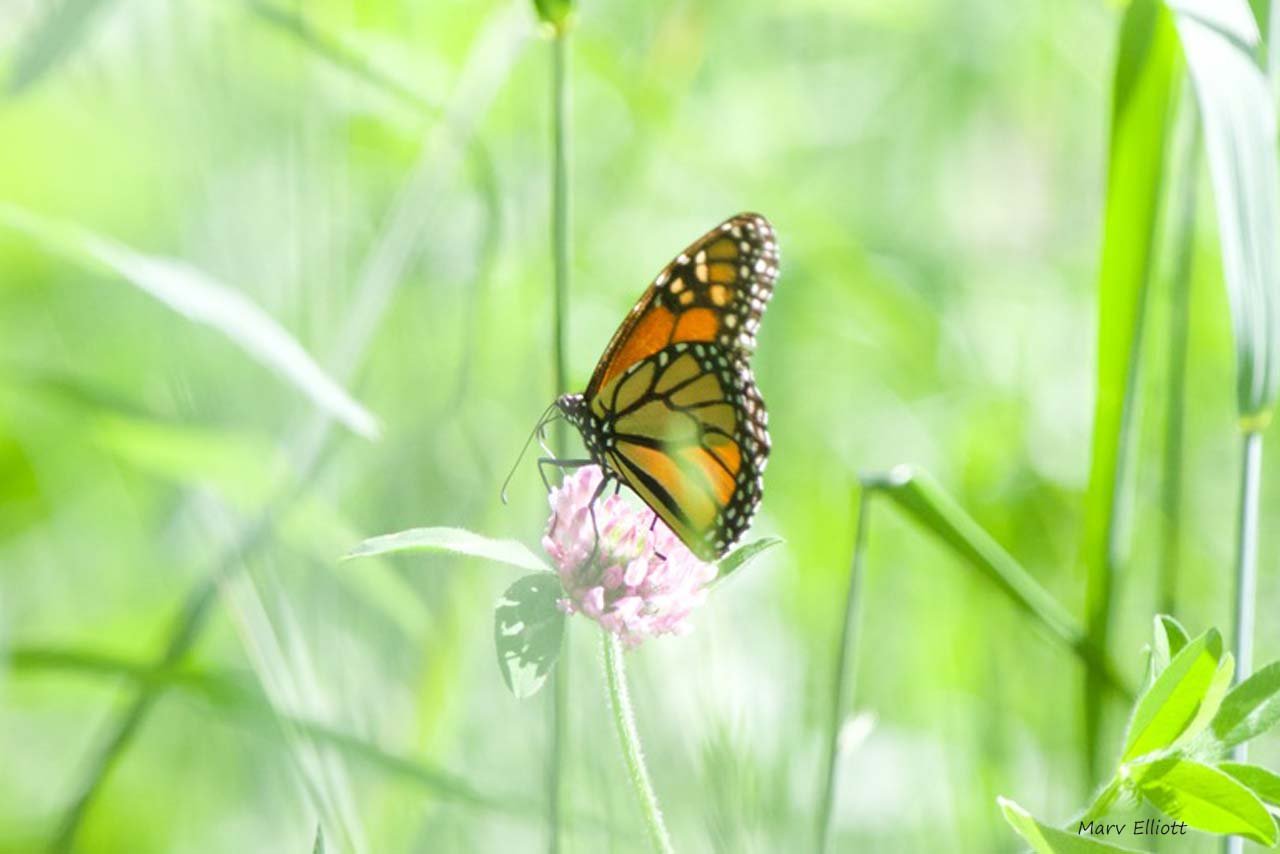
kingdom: Animalia
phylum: Arthropoda
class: Insecta
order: Lepidoptera
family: Nymphalidae
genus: Danaus
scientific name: Danaus plexippus
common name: Monarch
